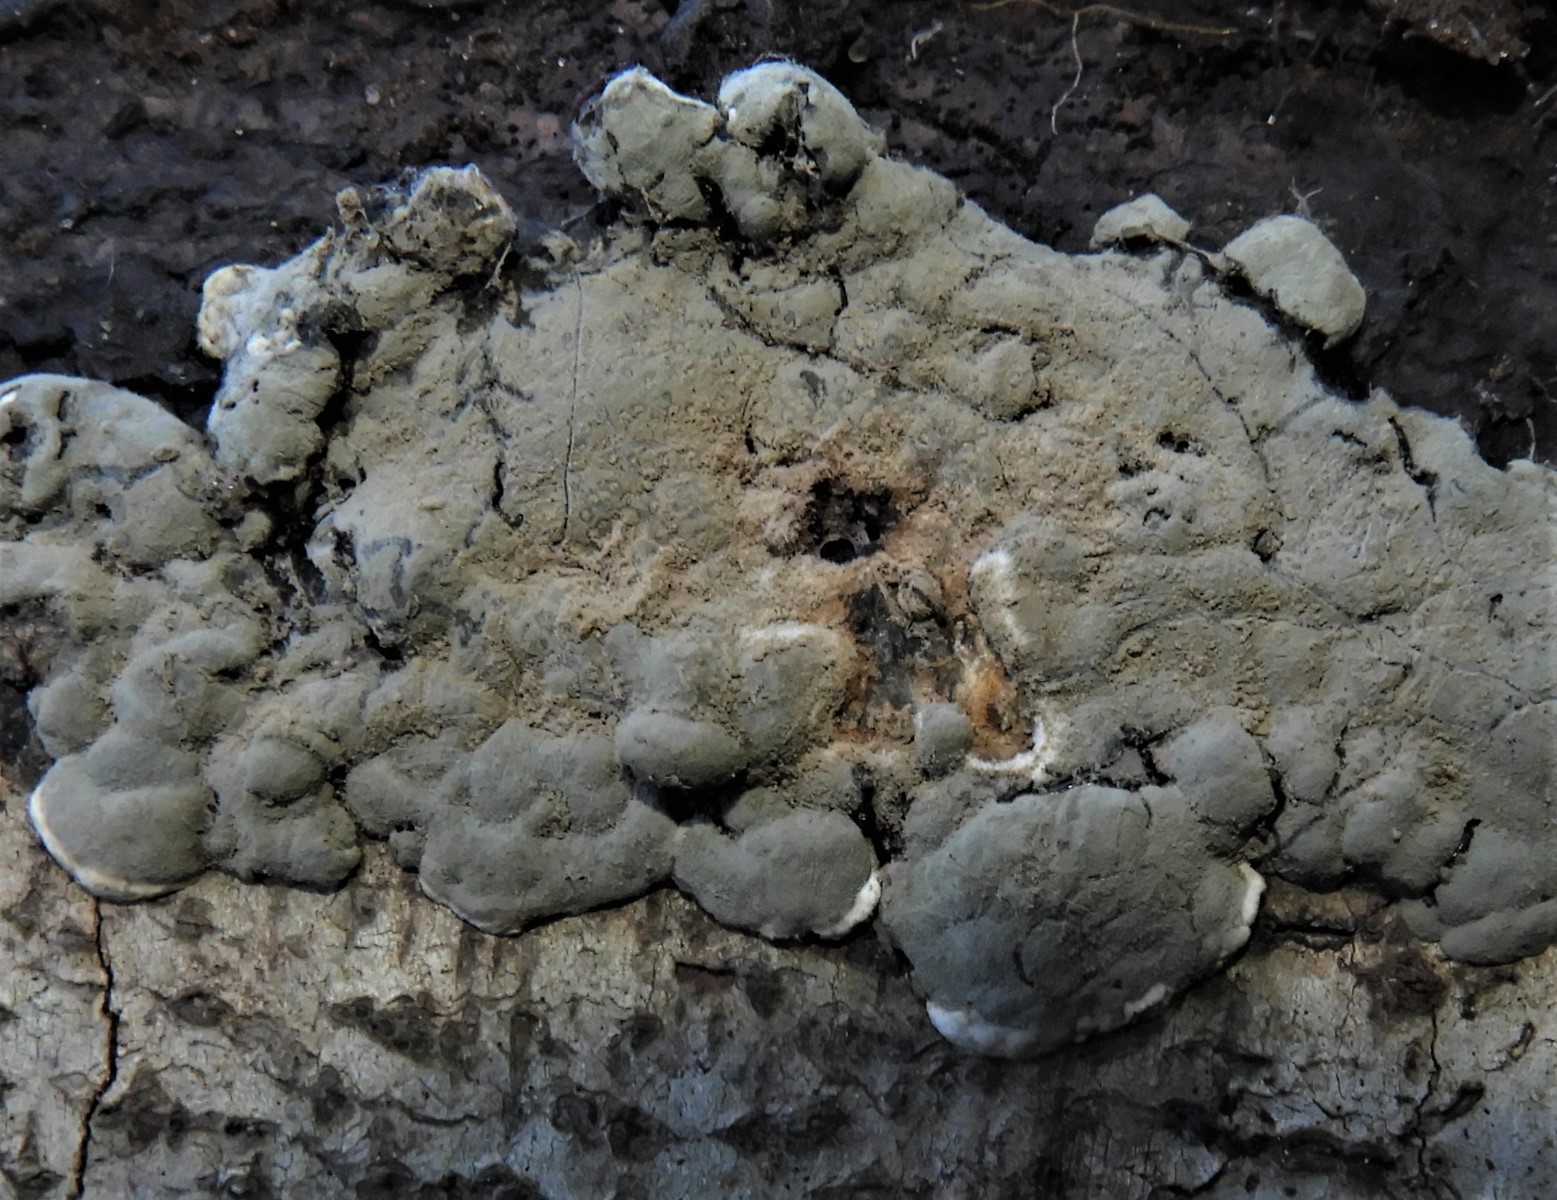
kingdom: Fungi
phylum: Ascomycota
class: Sordariomycetes
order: Xylariales
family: Xylariaceae
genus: Kretzschmaria
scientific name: Kretzschmaria deusta
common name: stor kulsvamp
